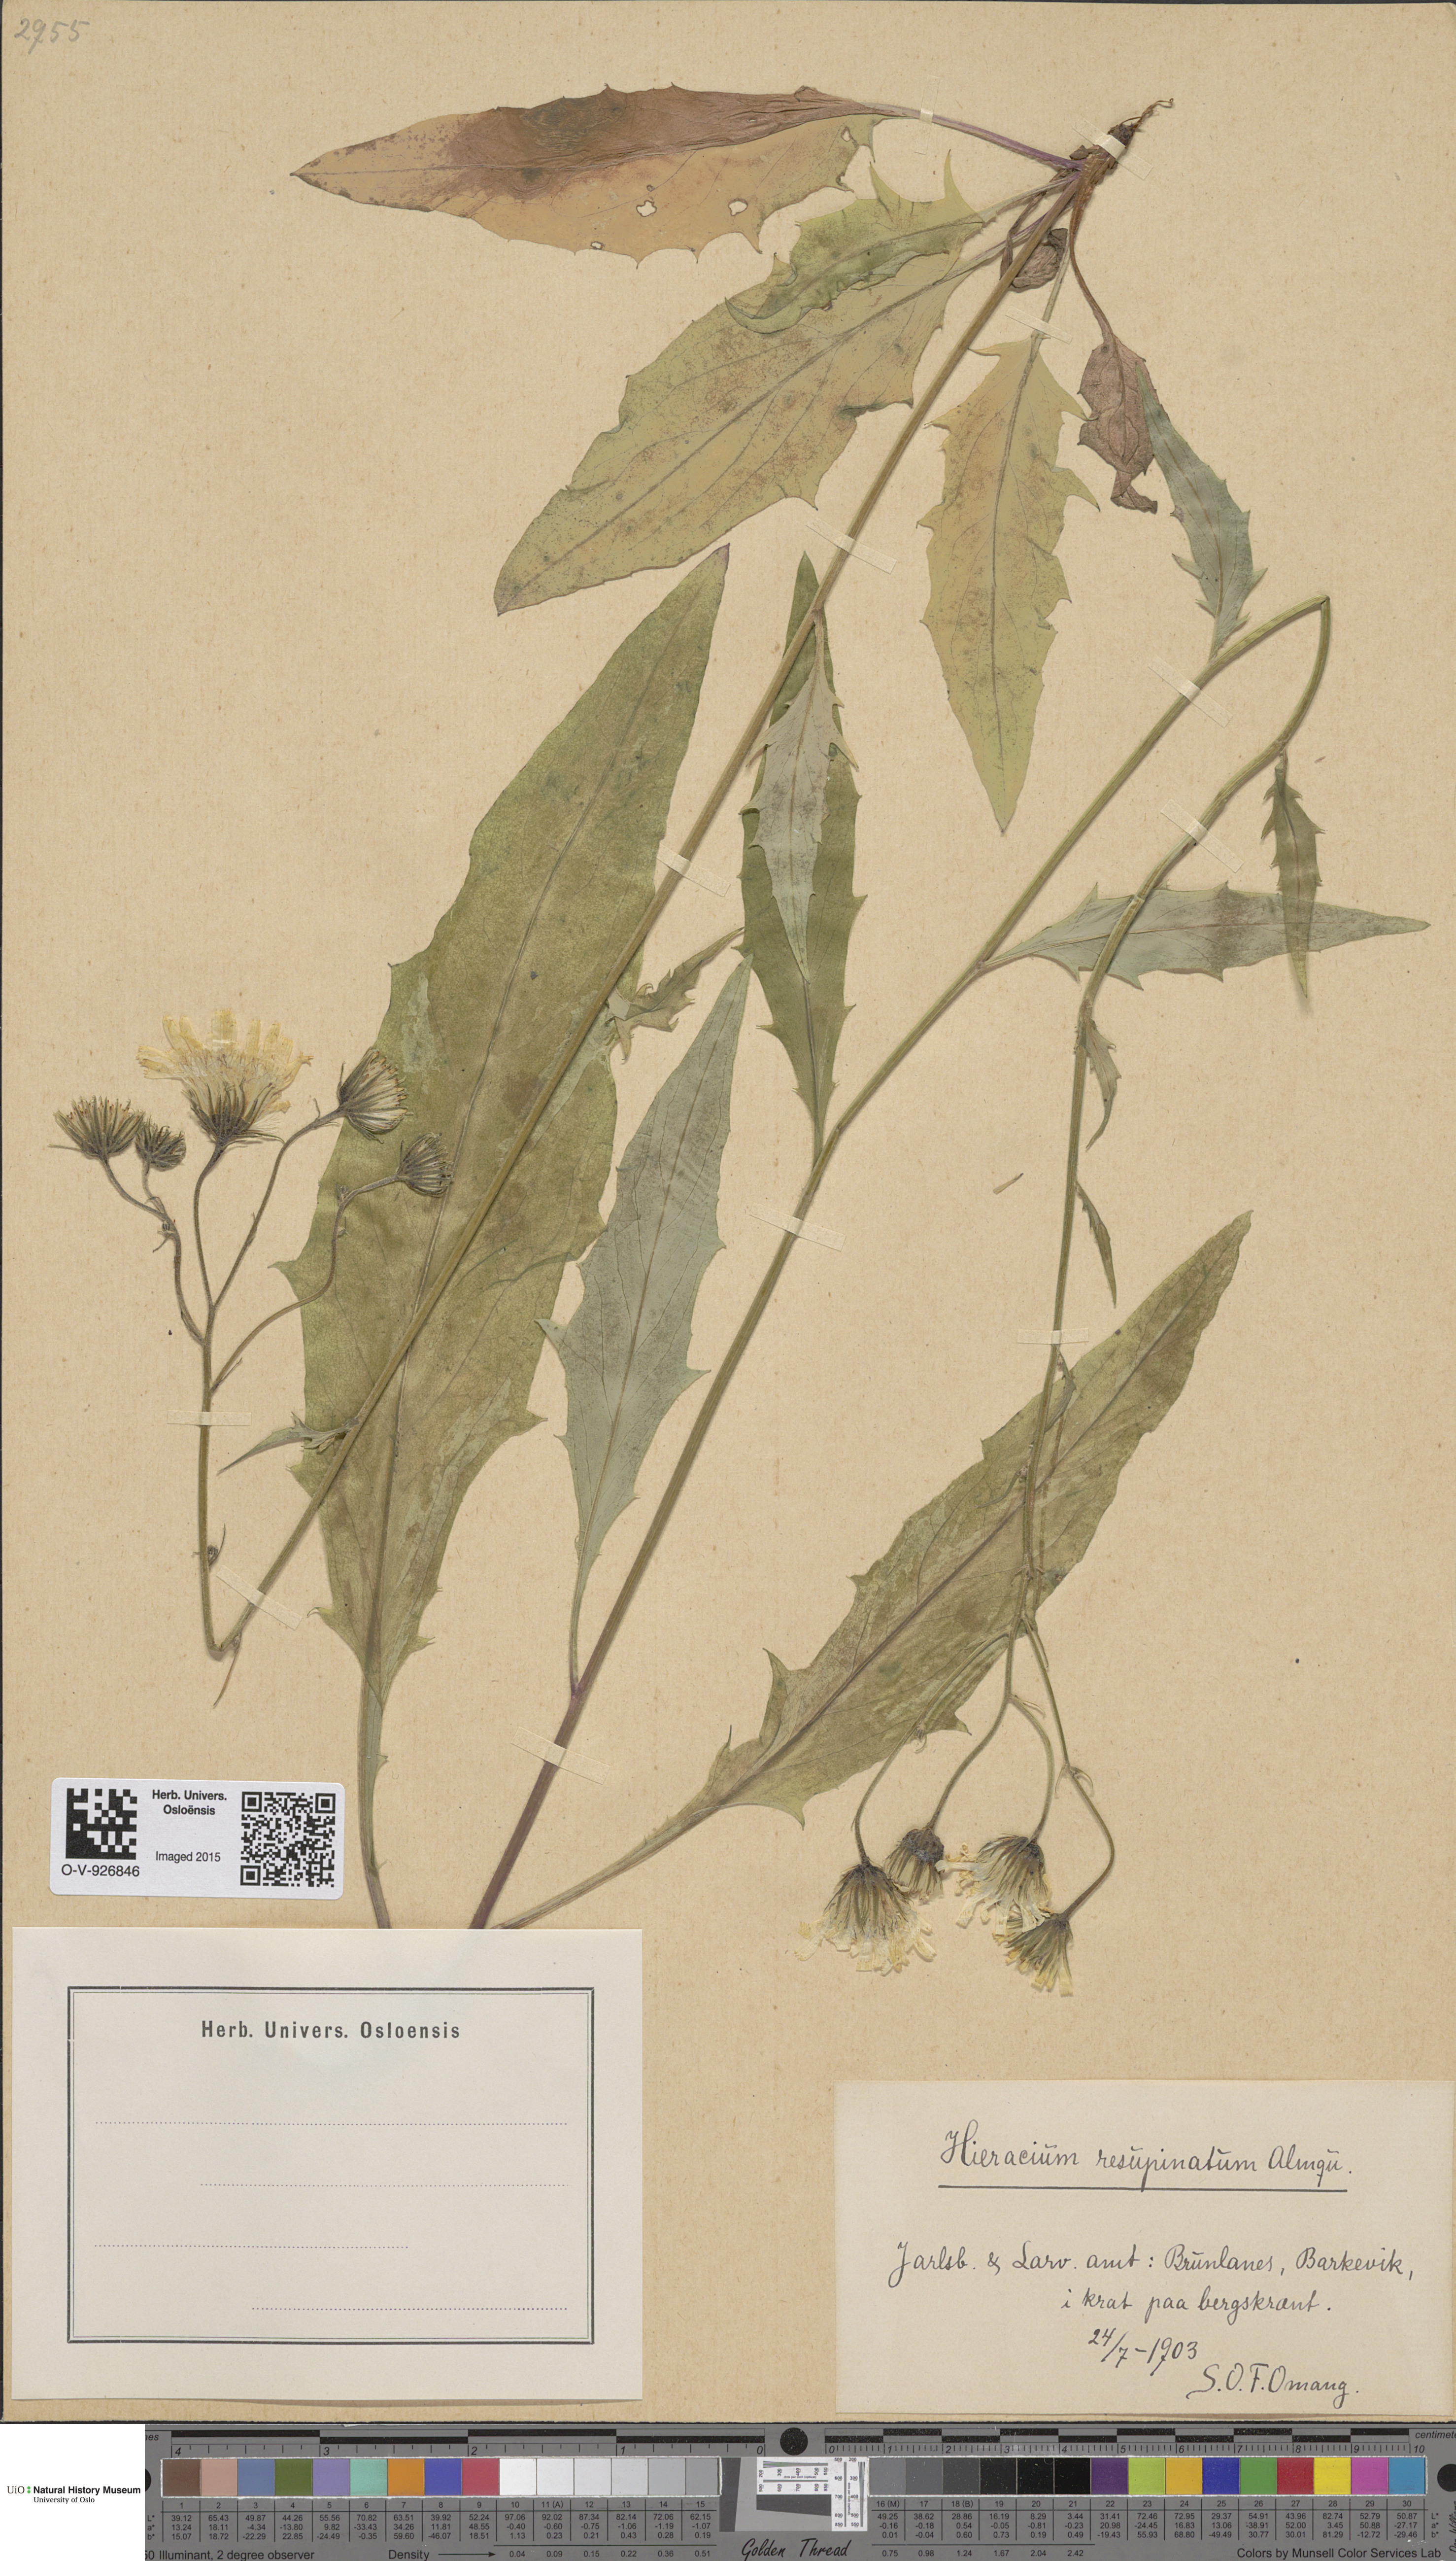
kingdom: Plantae
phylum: Tracheophyta
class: Magnoliopsida
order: Asterales
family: Asteraceae
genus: Hieracium
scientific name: Hieracium resupinatum
